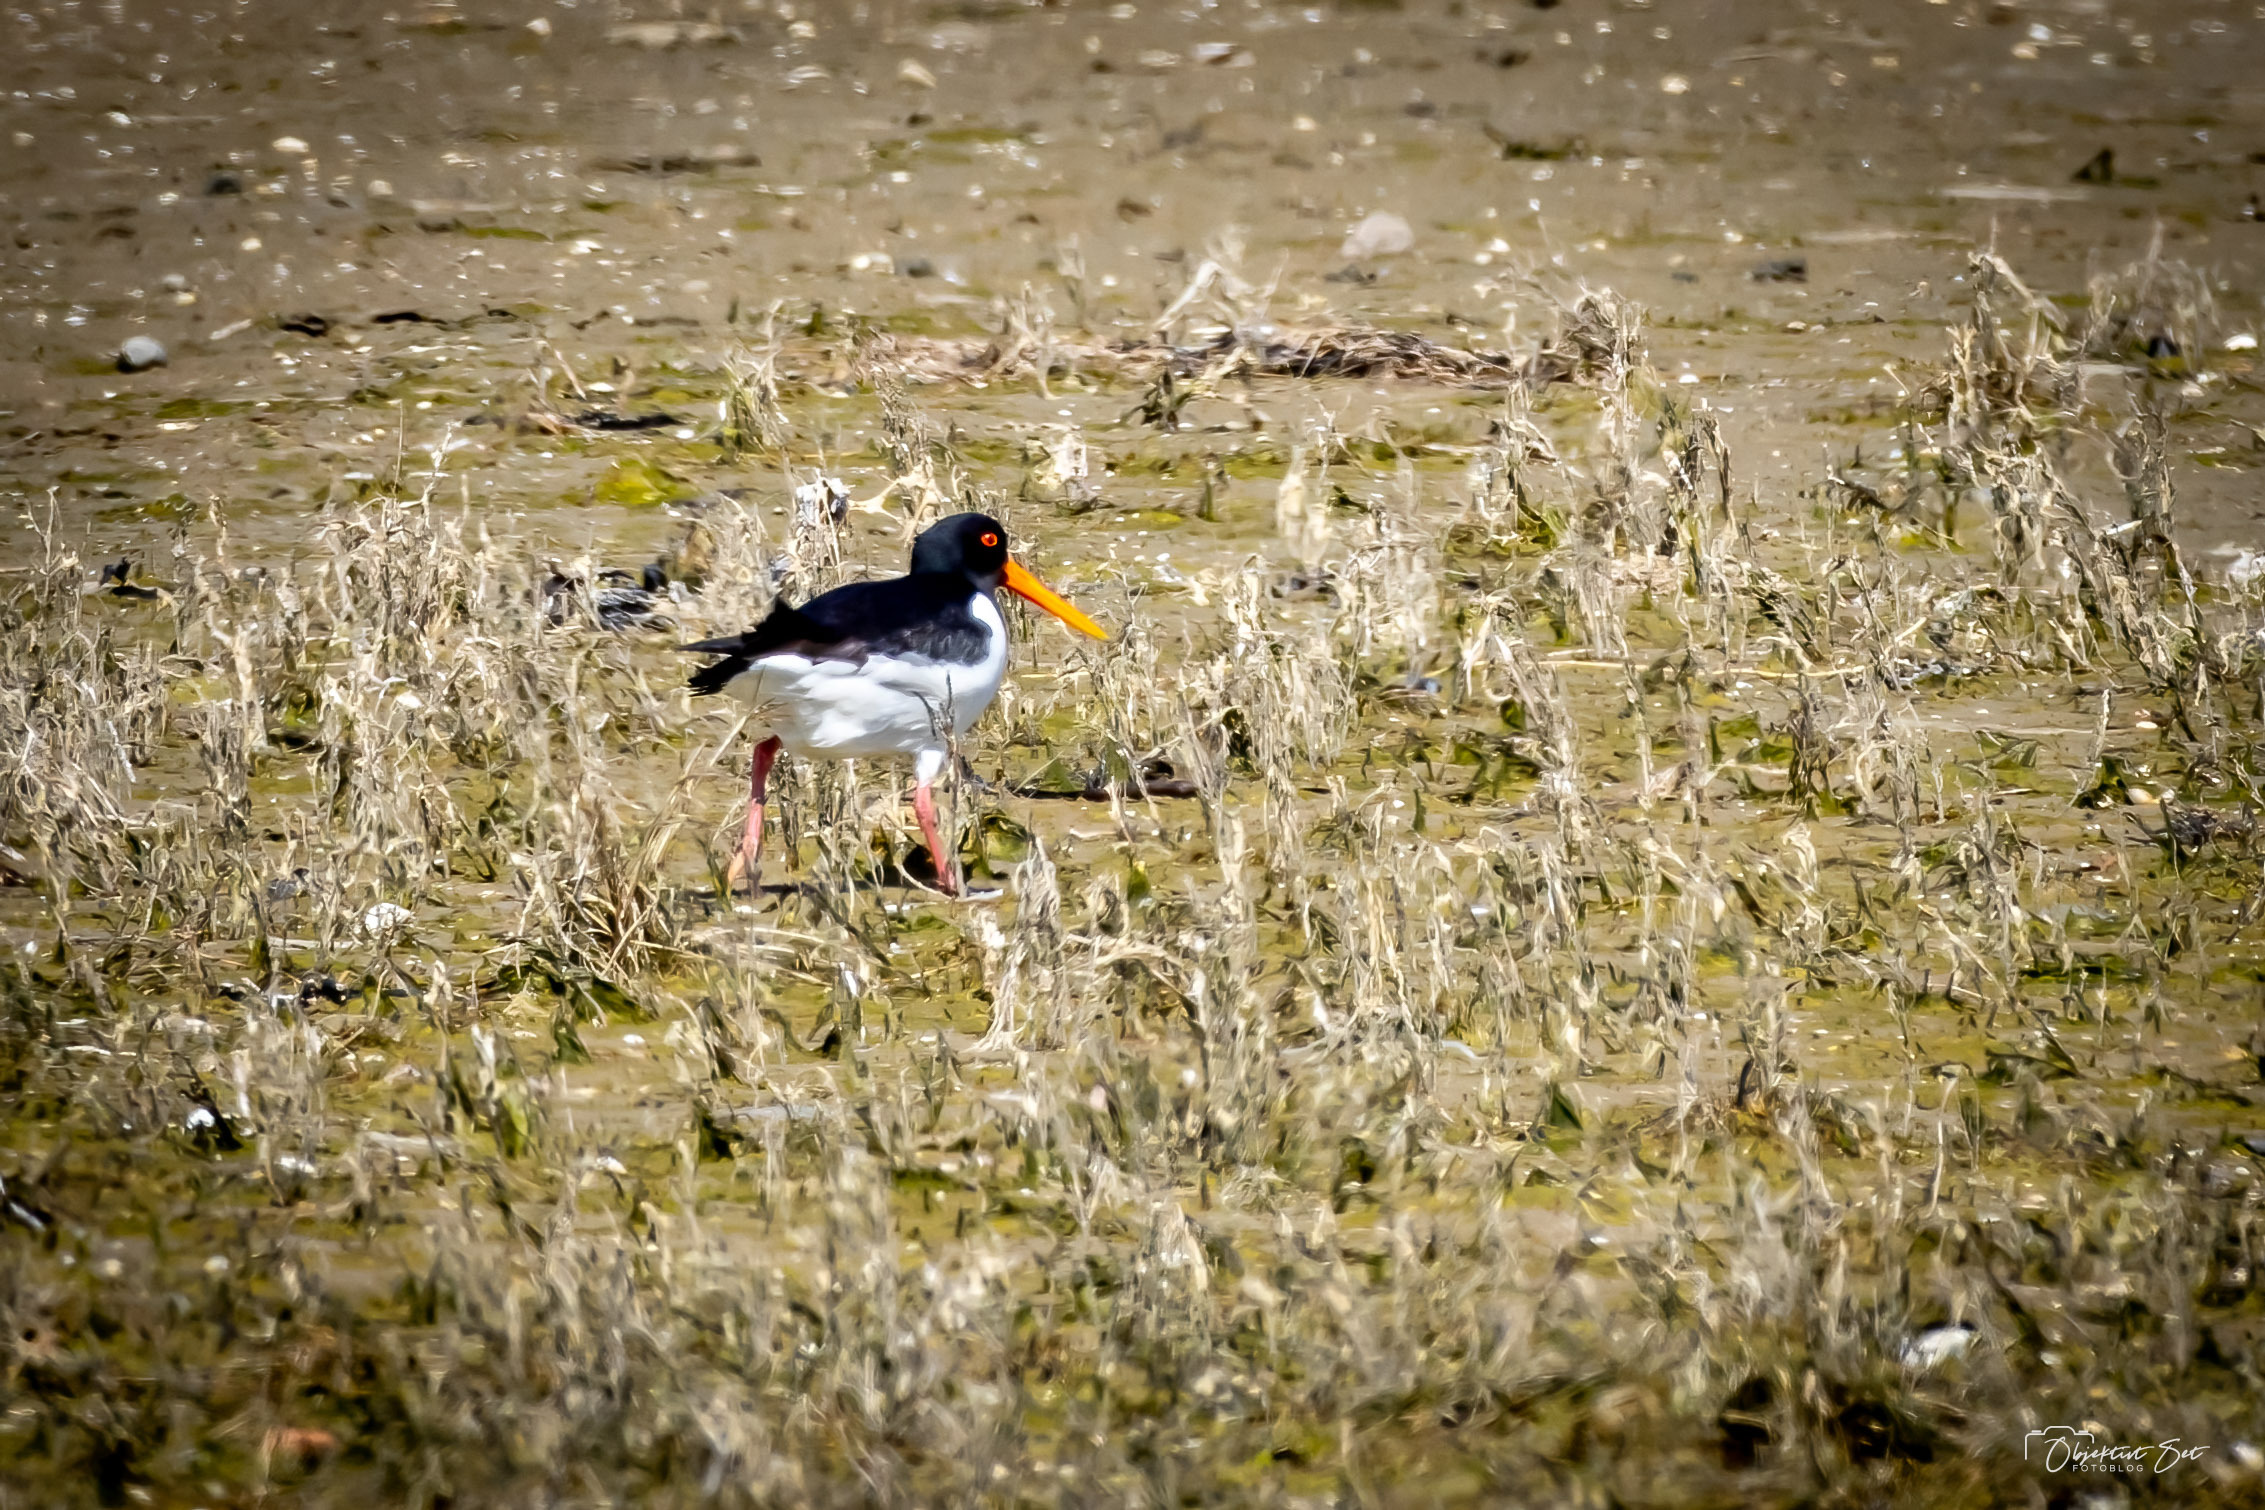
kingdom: Animalia
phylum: Chordata
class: Aves
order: Charadriiformes
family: Haematopodidae
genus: Haematopus
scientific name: Haematopus ostralegus
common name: Strandskade
